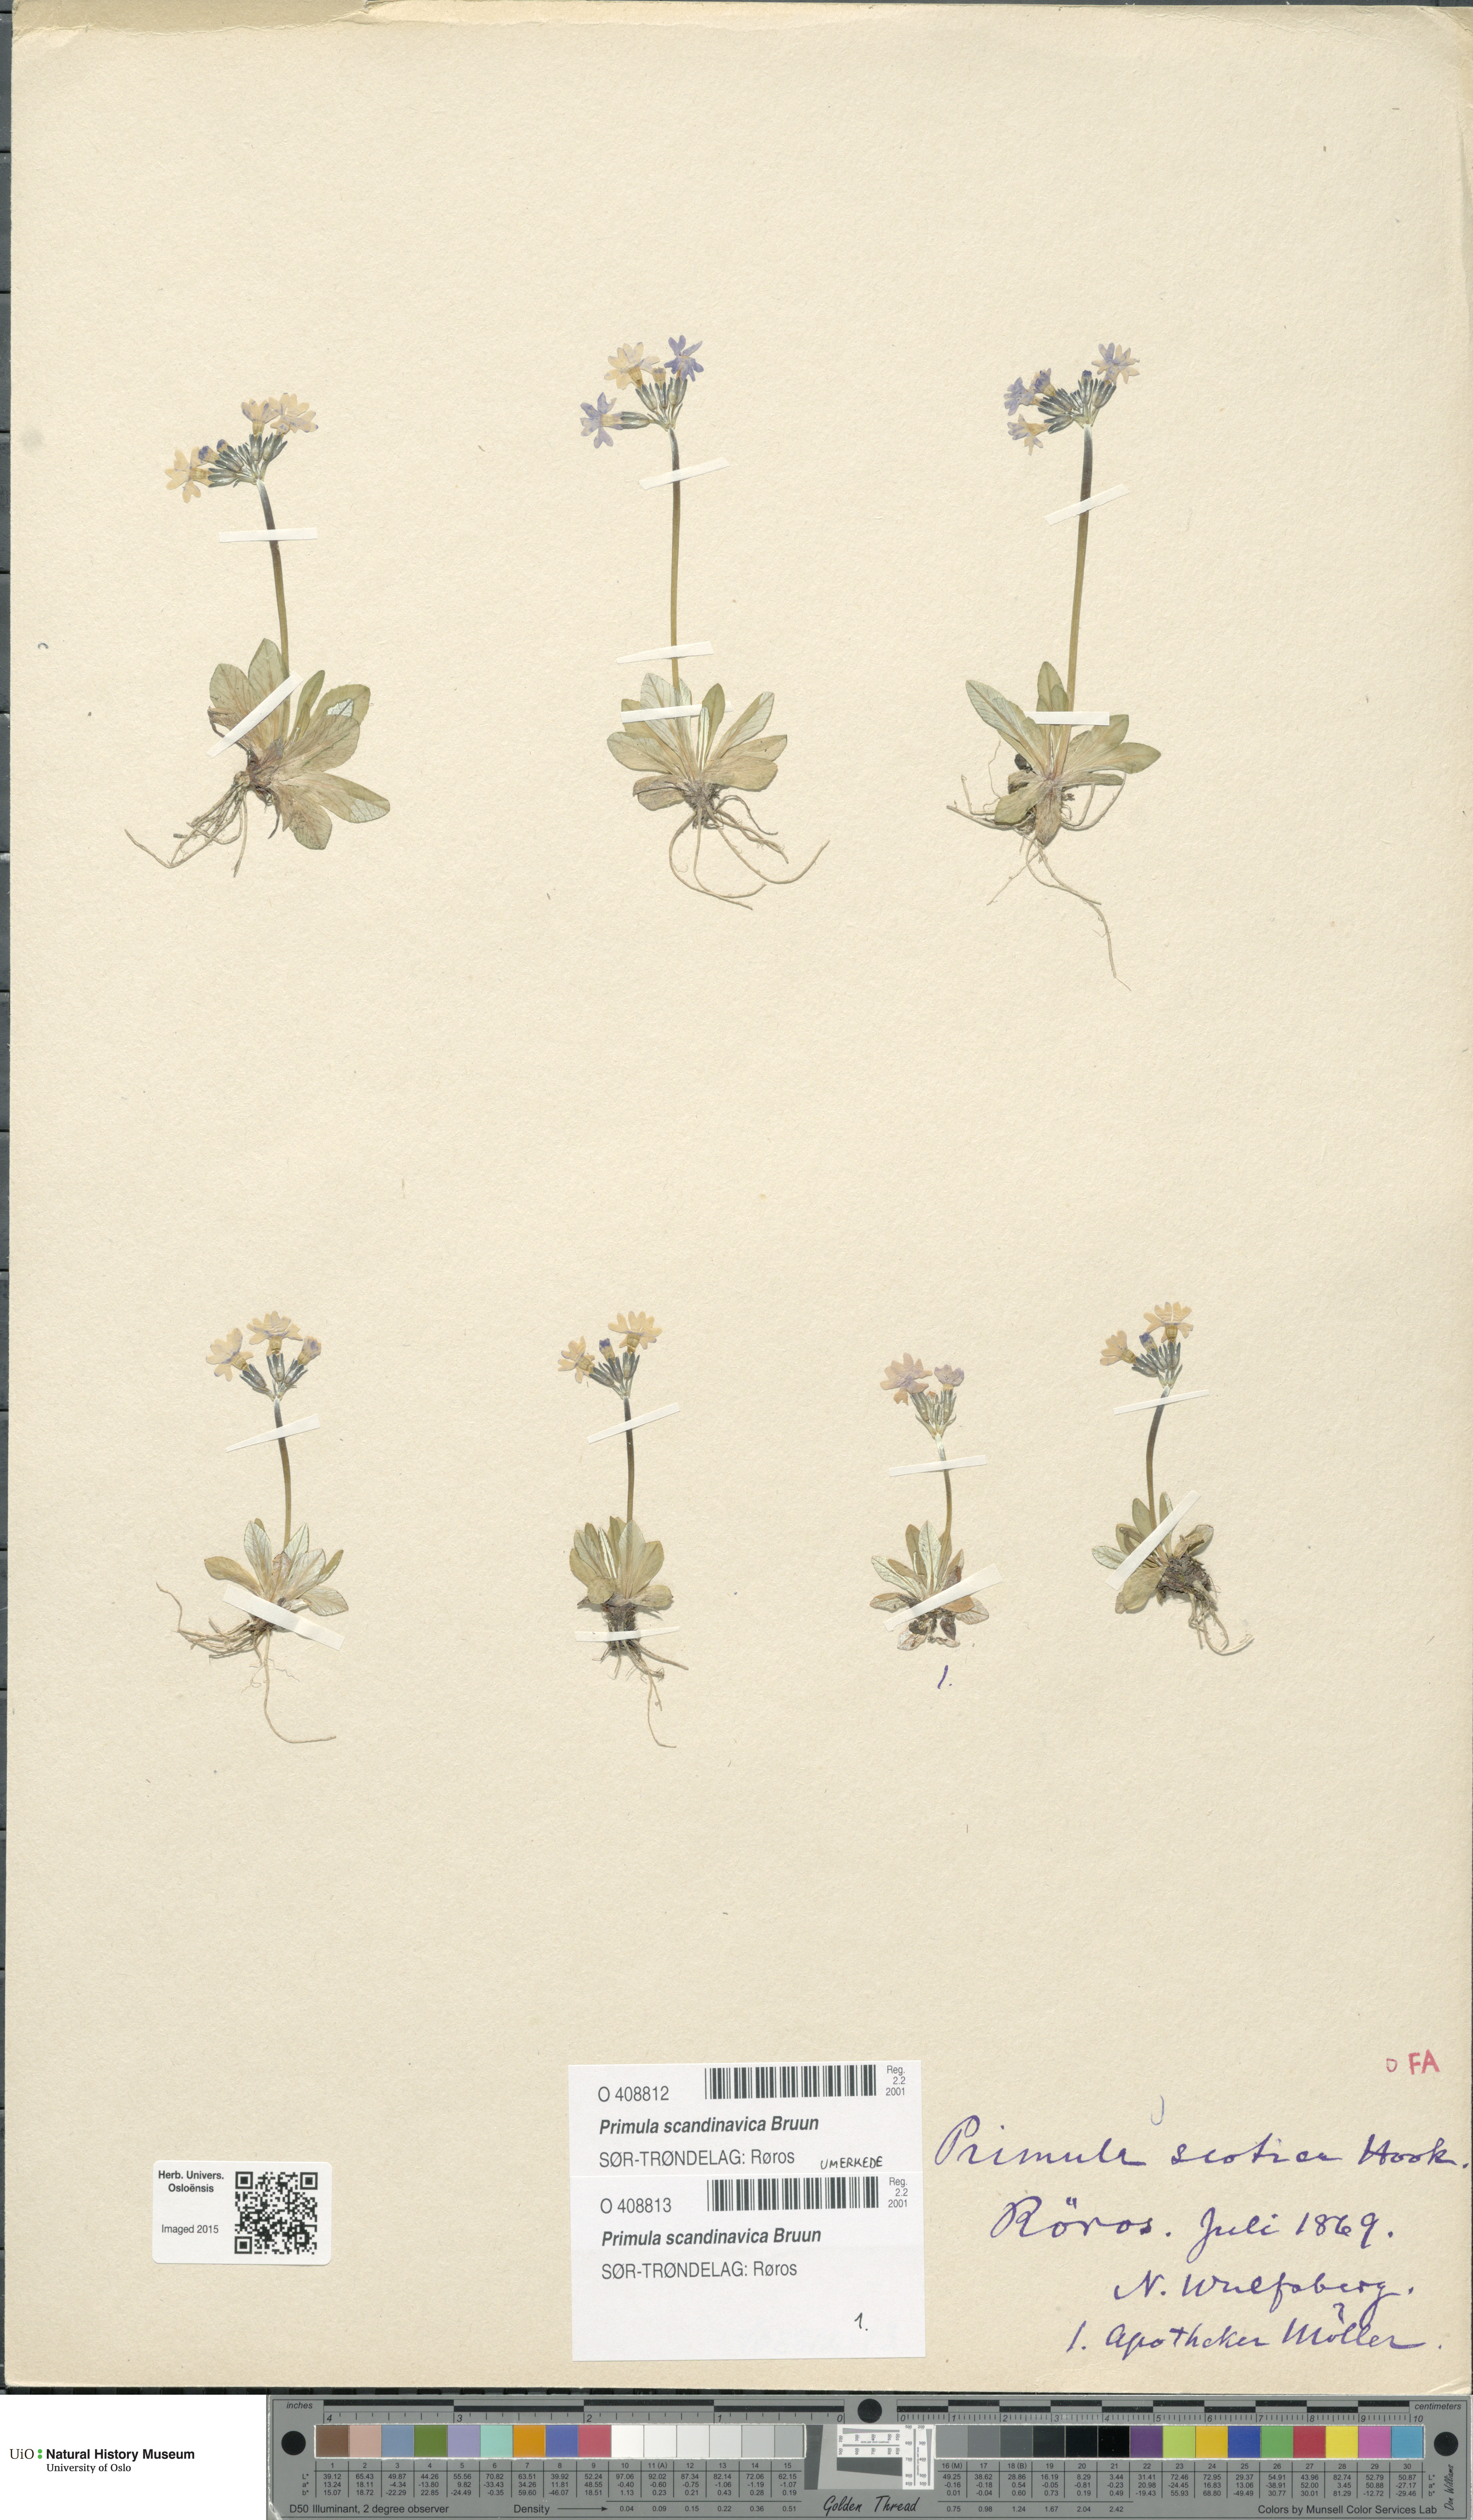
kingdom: Plantae
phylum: Tracheophyta
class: Magnoliopsida
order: Ericales
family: Primulaceae
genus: Primula
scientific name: Primula scandinavica
